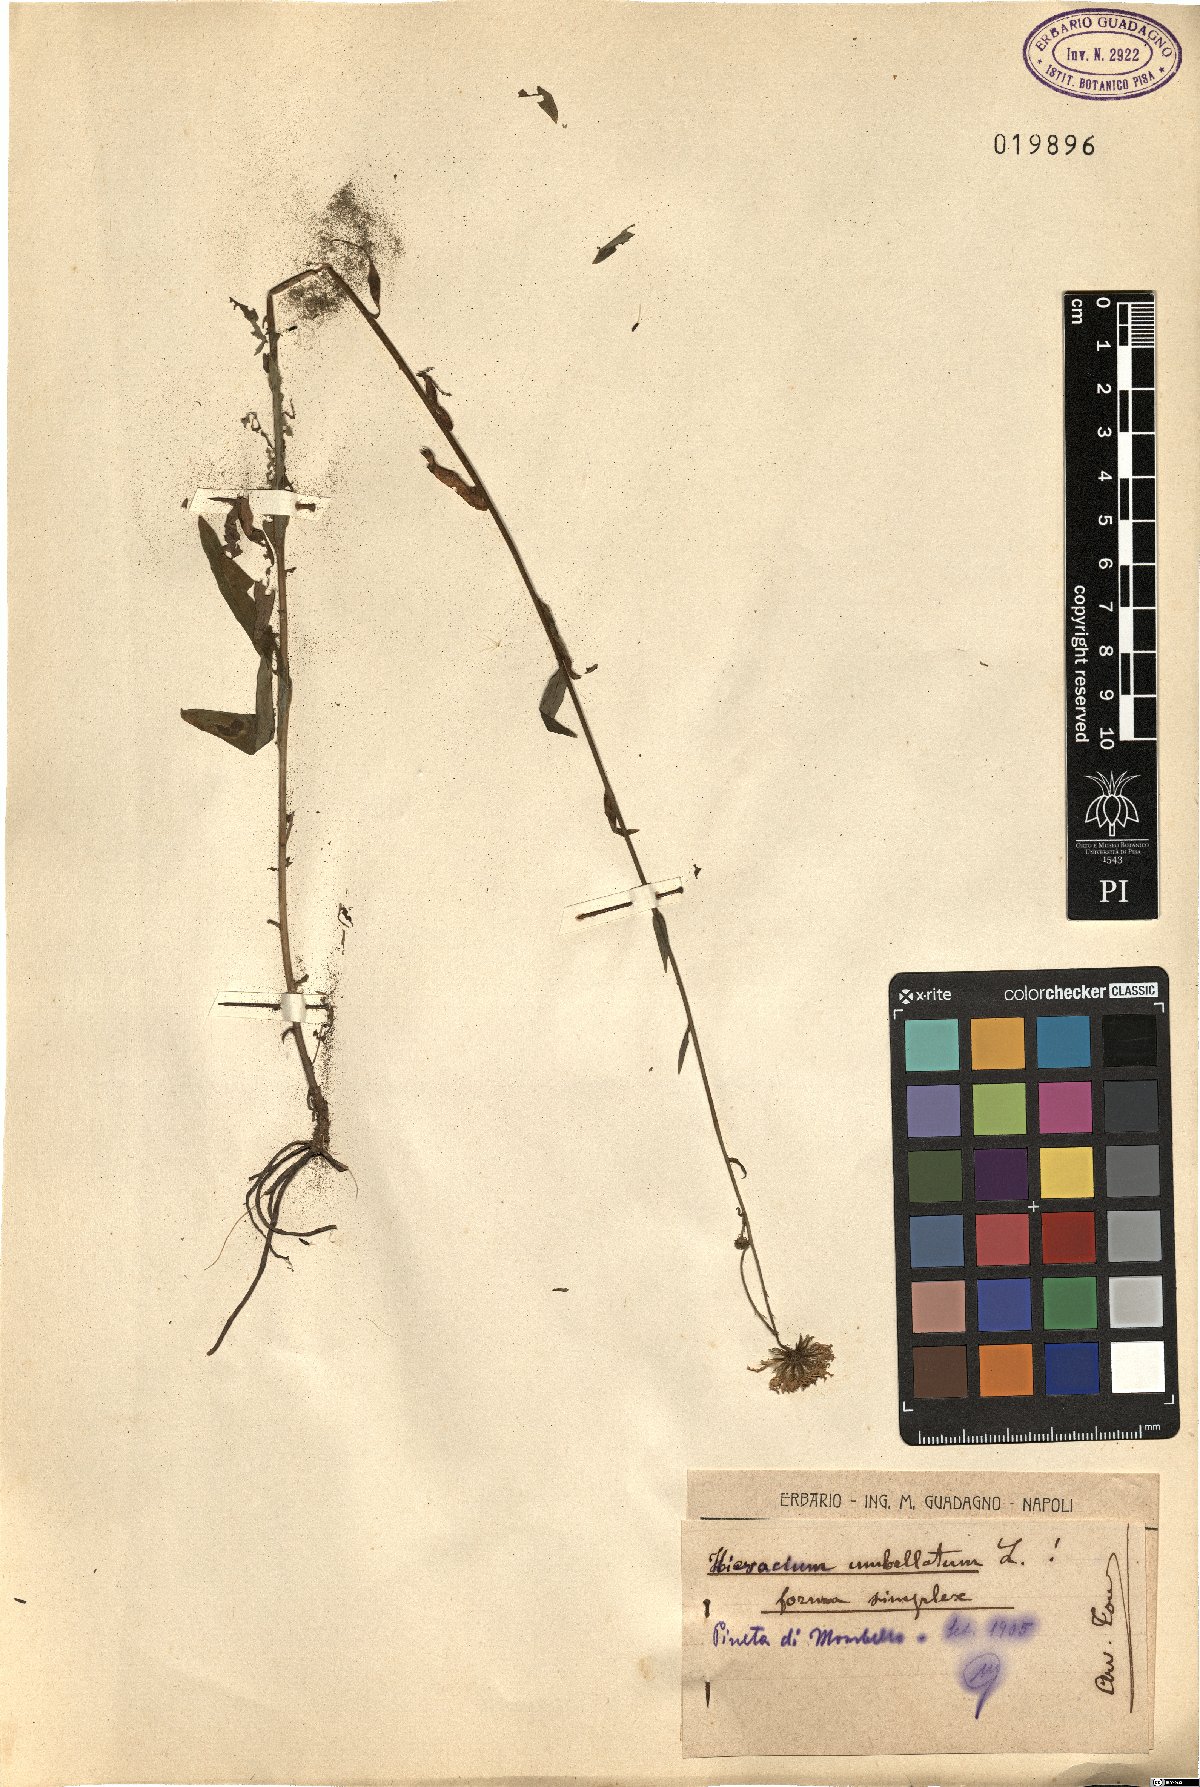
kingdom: Plantae
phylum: Tracheophyta
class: Magnoliopsida
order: Asterales
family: Asteraceae
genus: Hieracium
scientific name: Hieracium umbellatum
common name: Northern hawkweed
